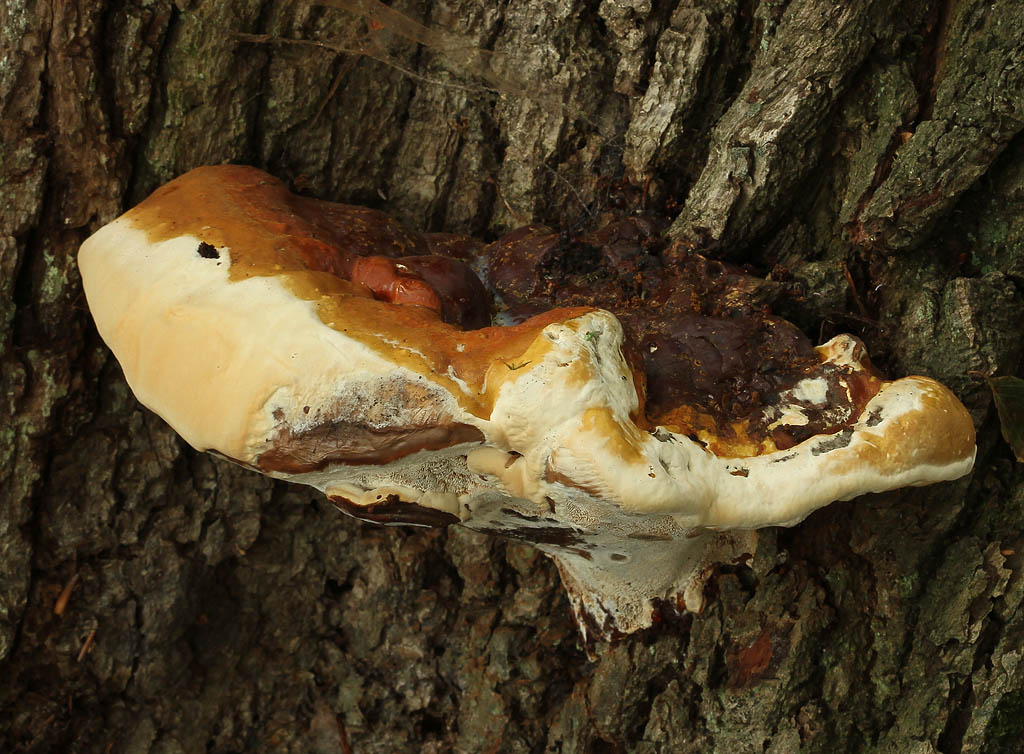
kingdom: Fungi
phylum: Basidiomycota
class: Agaricomycetes
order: Polyporales
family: Polyporaceae
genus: Ganoderma
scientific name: Ganoderma resinaceum
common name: gyldenbrun lakporesvamp
